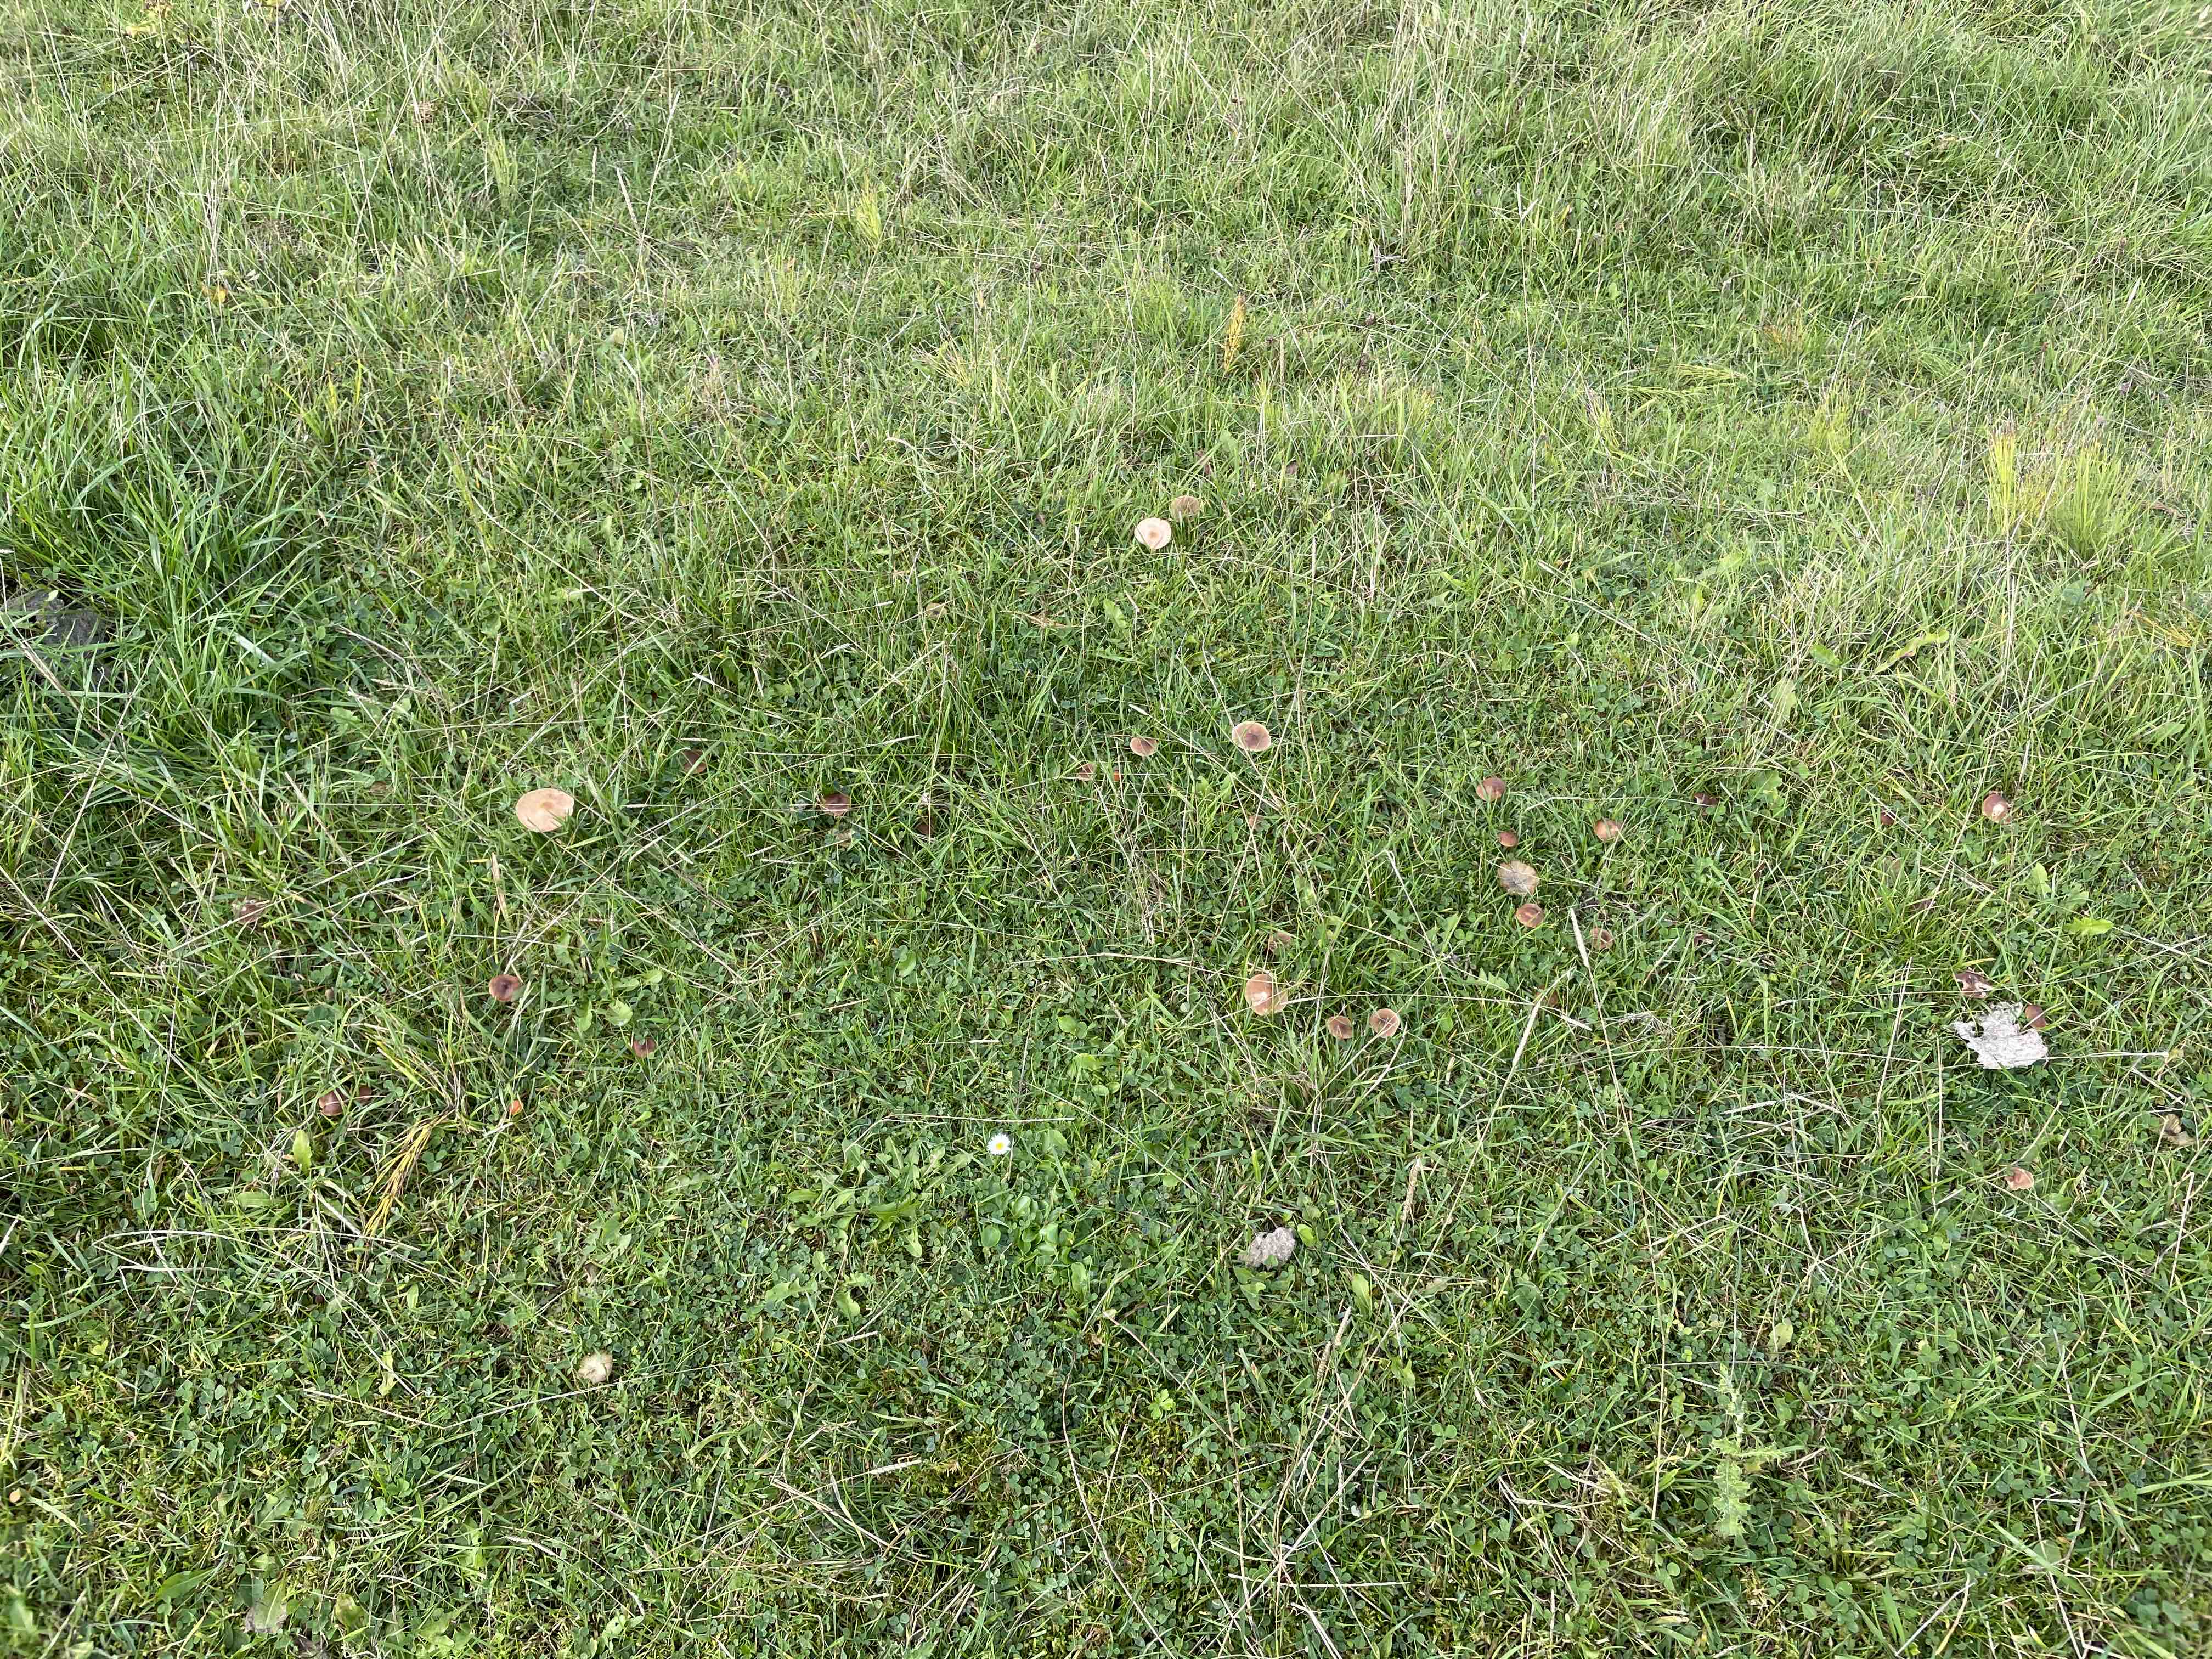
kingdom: Fungi
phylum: Basidiomycota
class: Agaricomycetes
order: Agaricales
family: Hygrophoraceae
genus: Cuphophyllus
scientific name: Cuphophyllus colemannianus
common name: rødbrun vokshat
